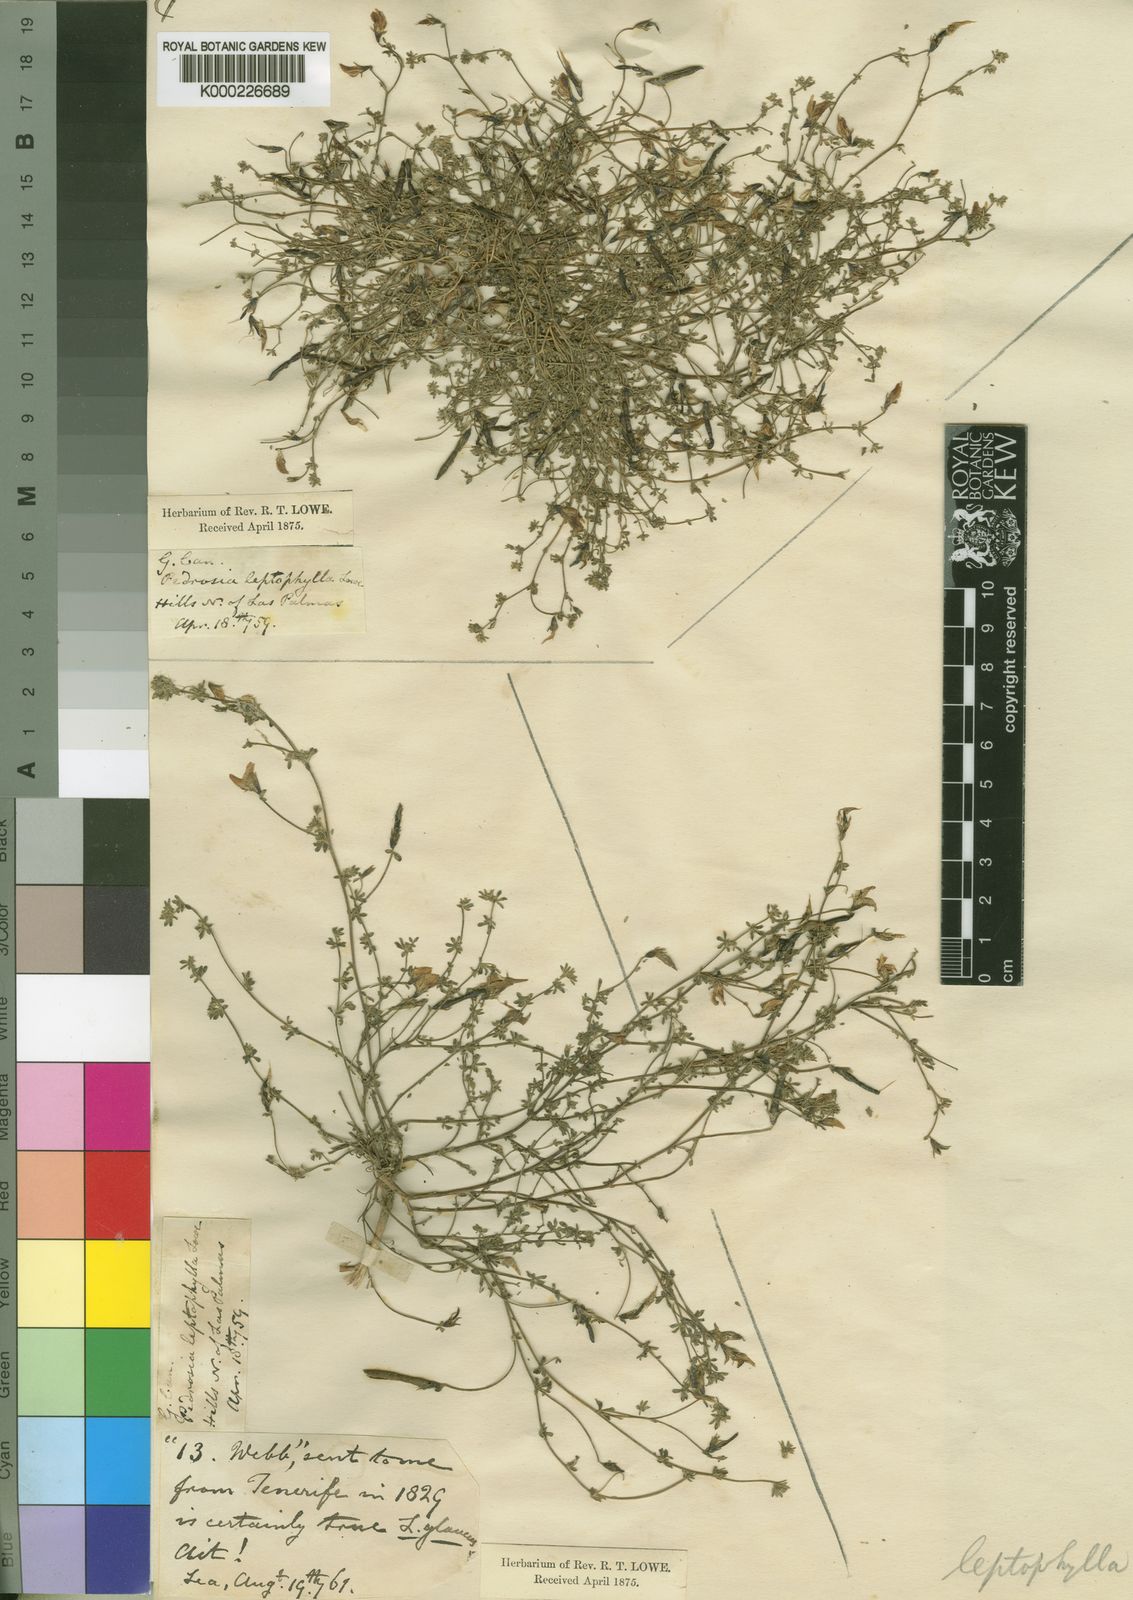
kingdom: Plantae
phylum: Tracheophyta
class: Magnoliopsida
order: Fabales
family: Fabaceae
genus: Lotus
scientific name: Lotus
